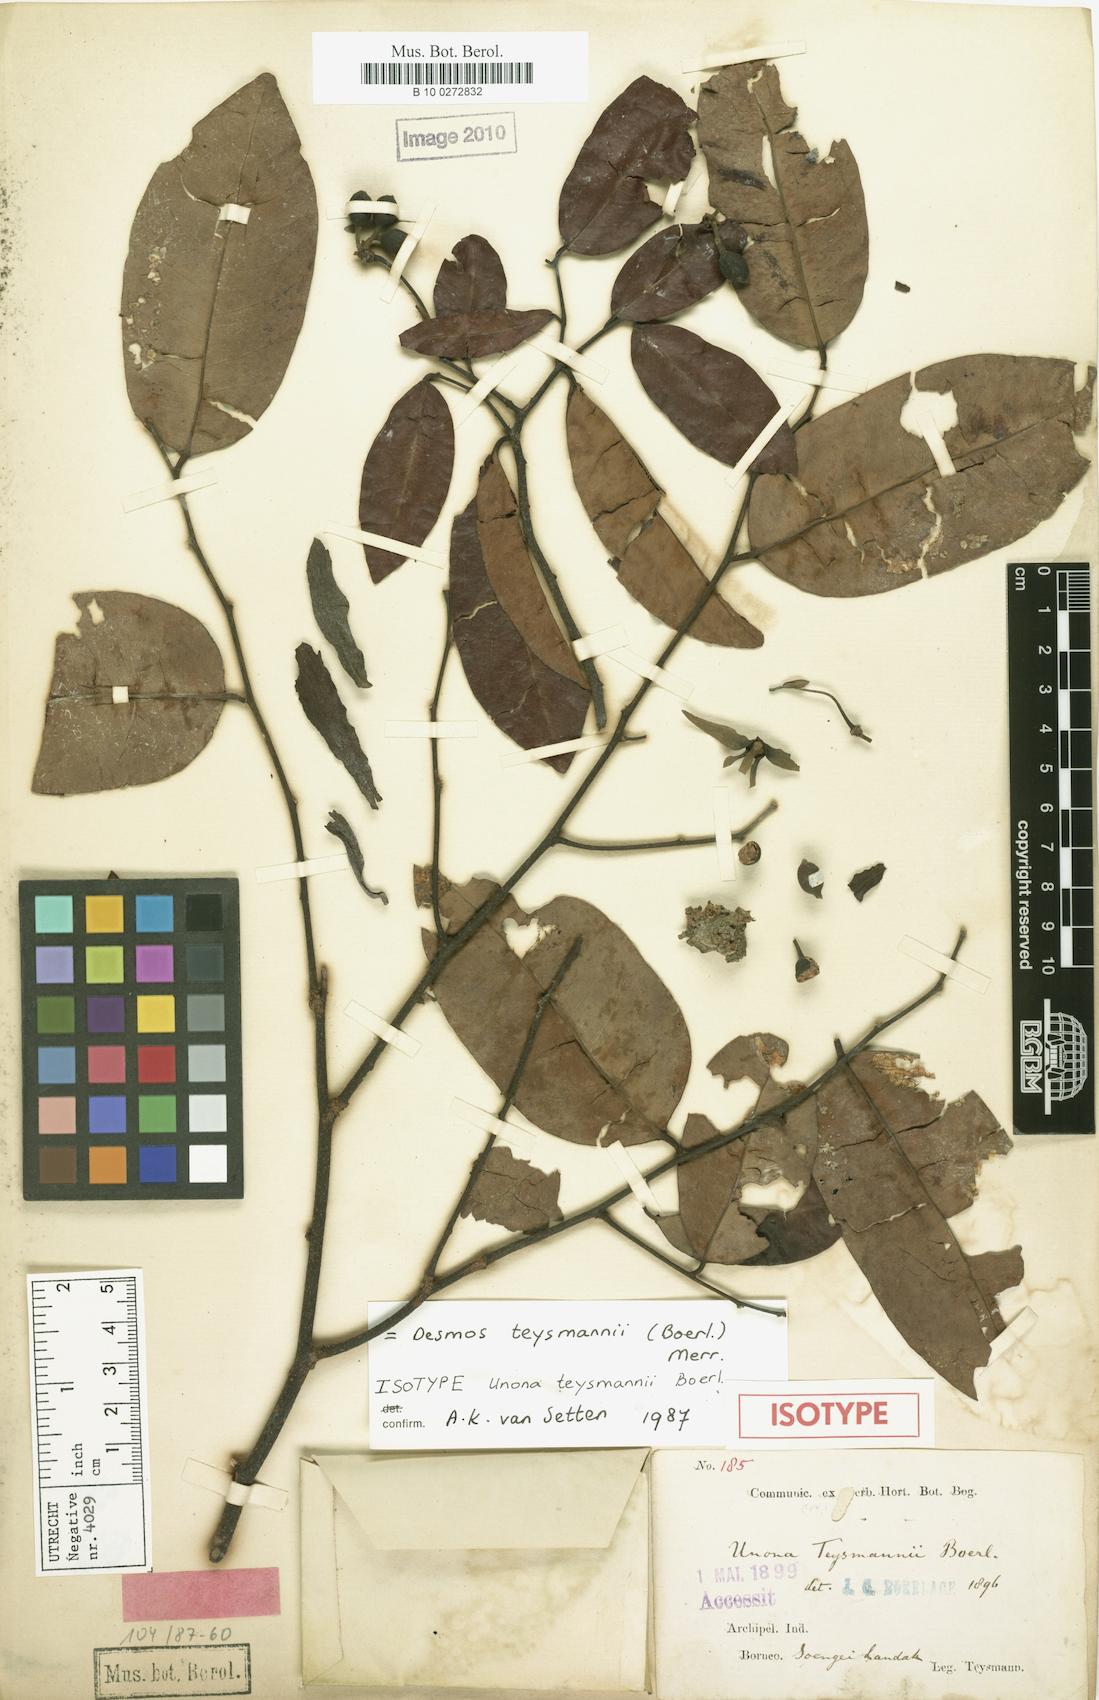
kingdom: Plantae
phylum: Tracheophyta
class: Magnoliopsida
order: Magnoliales
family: Annonaceae
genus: Desmos
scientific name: Desmos acutus
